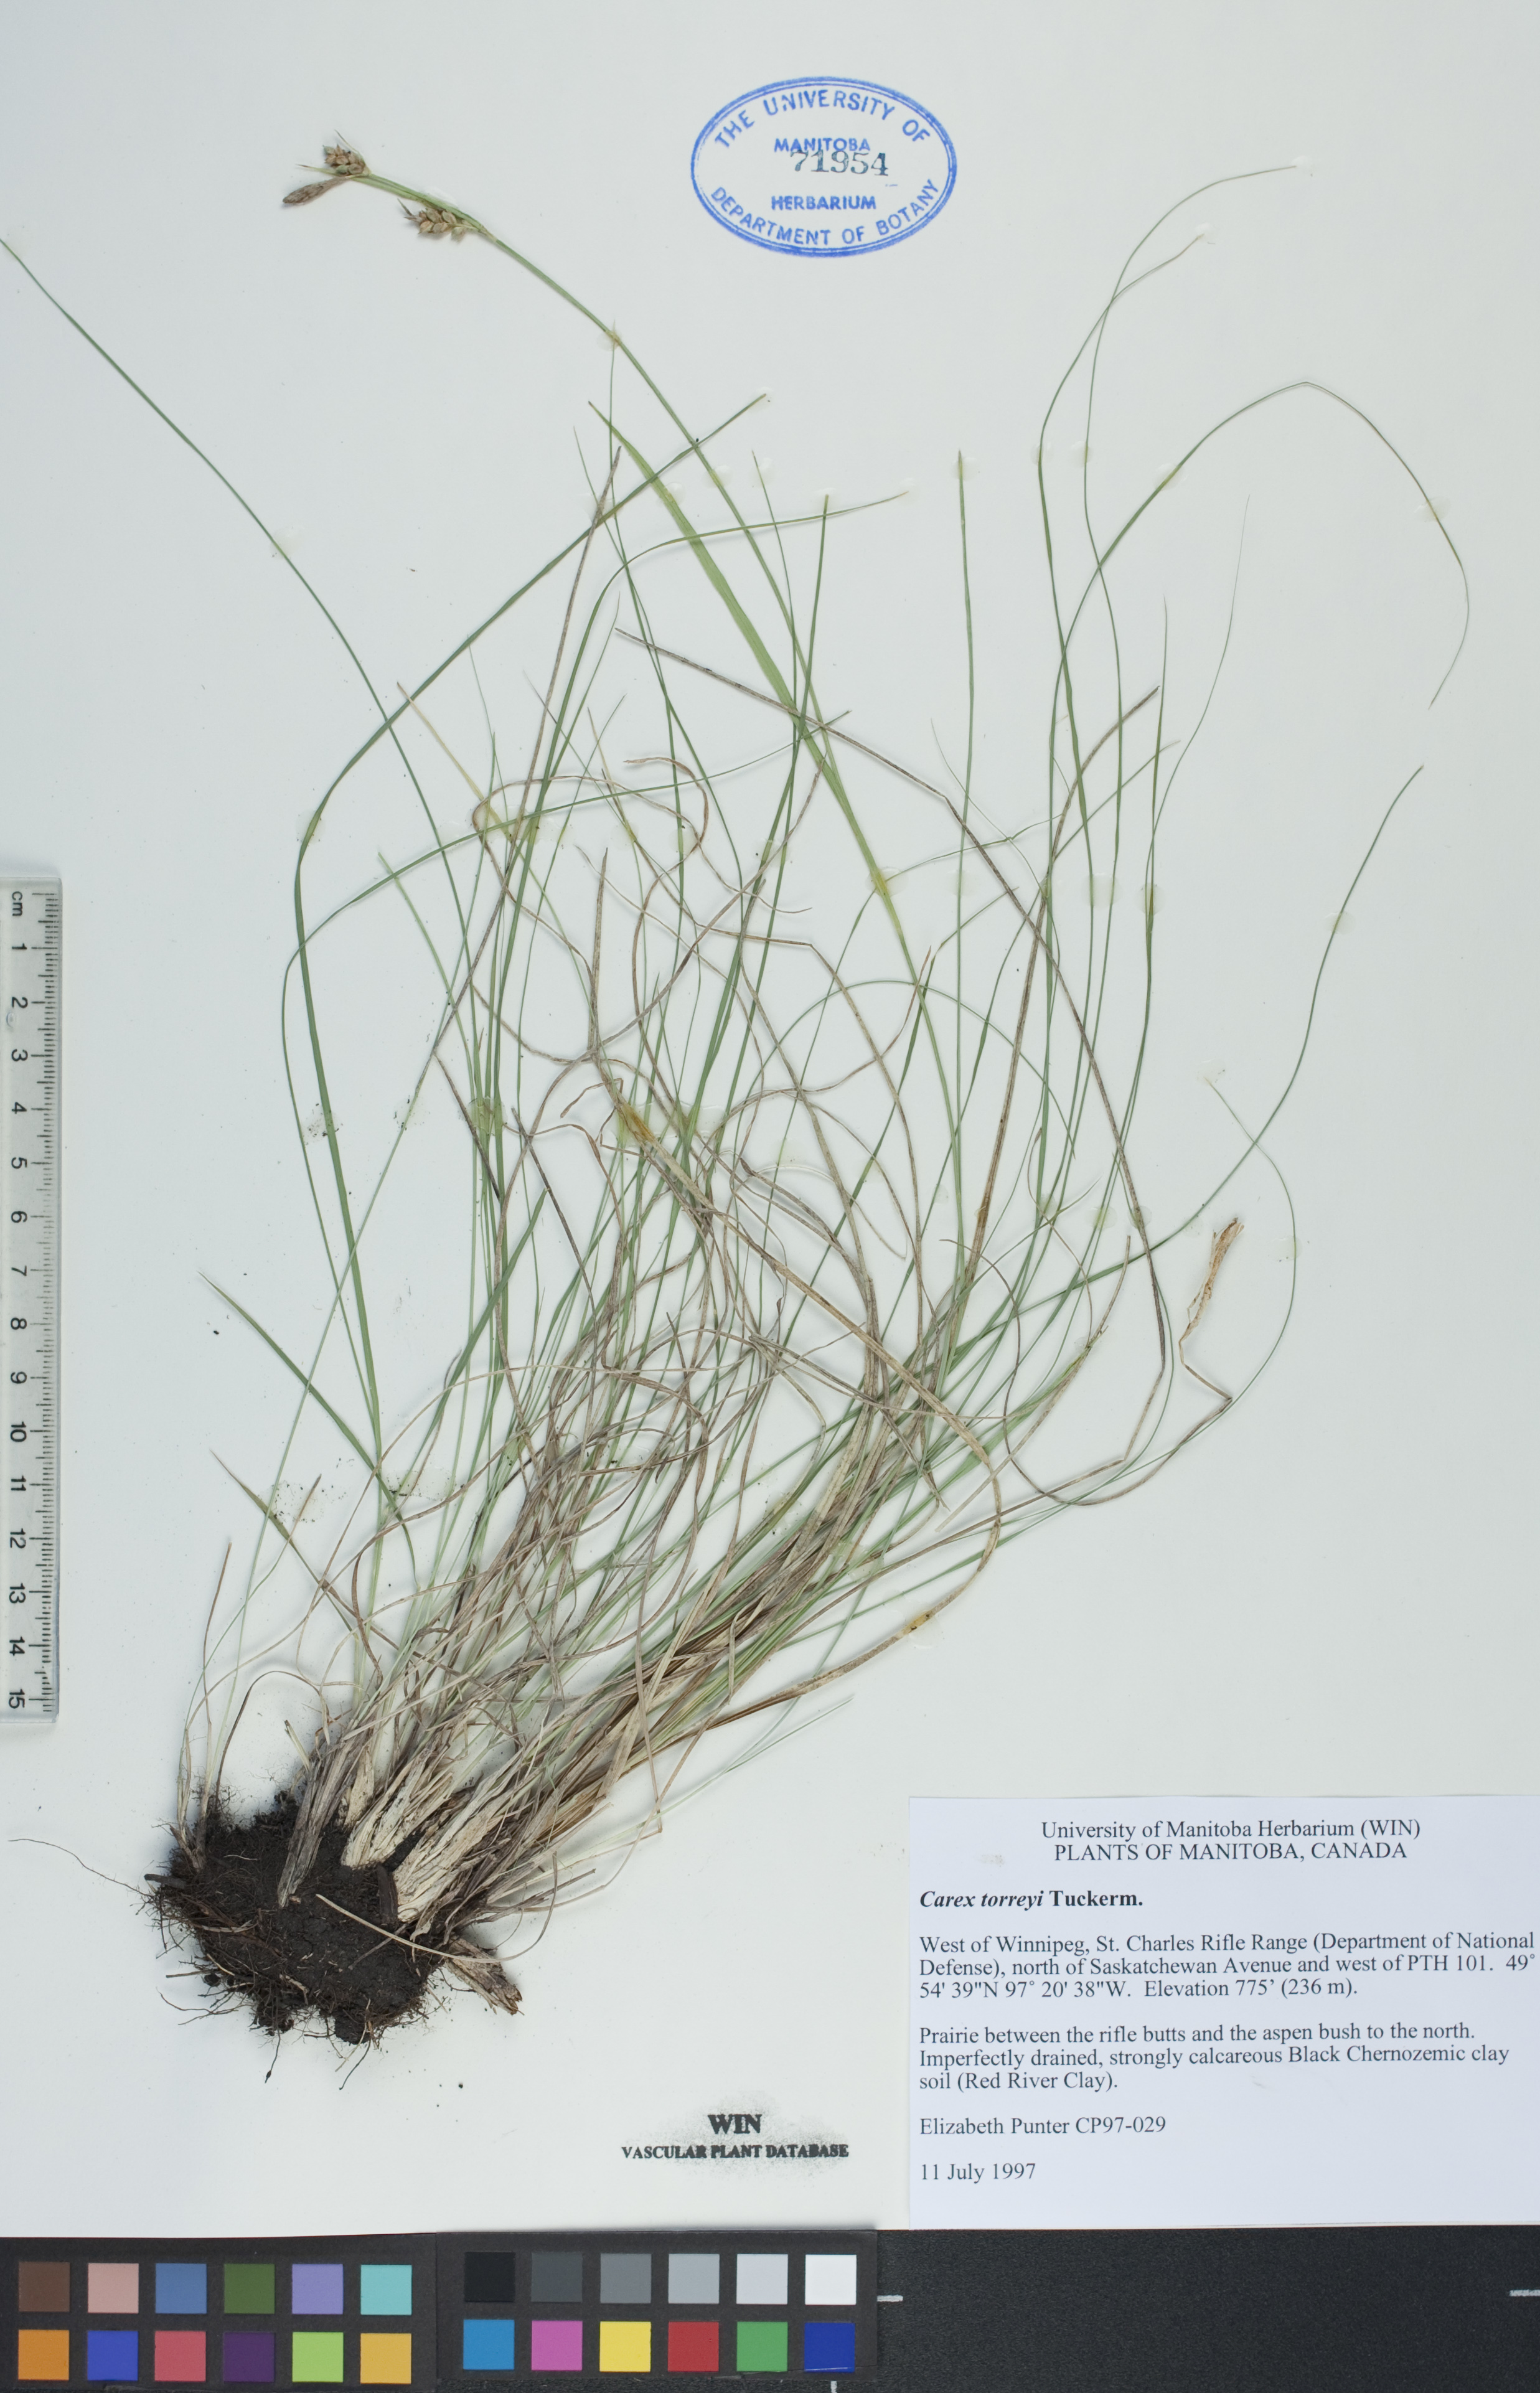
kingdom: Plantae
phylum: Tracheophyta
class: Liliopsida
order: Poales
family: Cyperaceae
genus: Carex
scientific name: Carex torreyi
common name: Torrey's sedge
